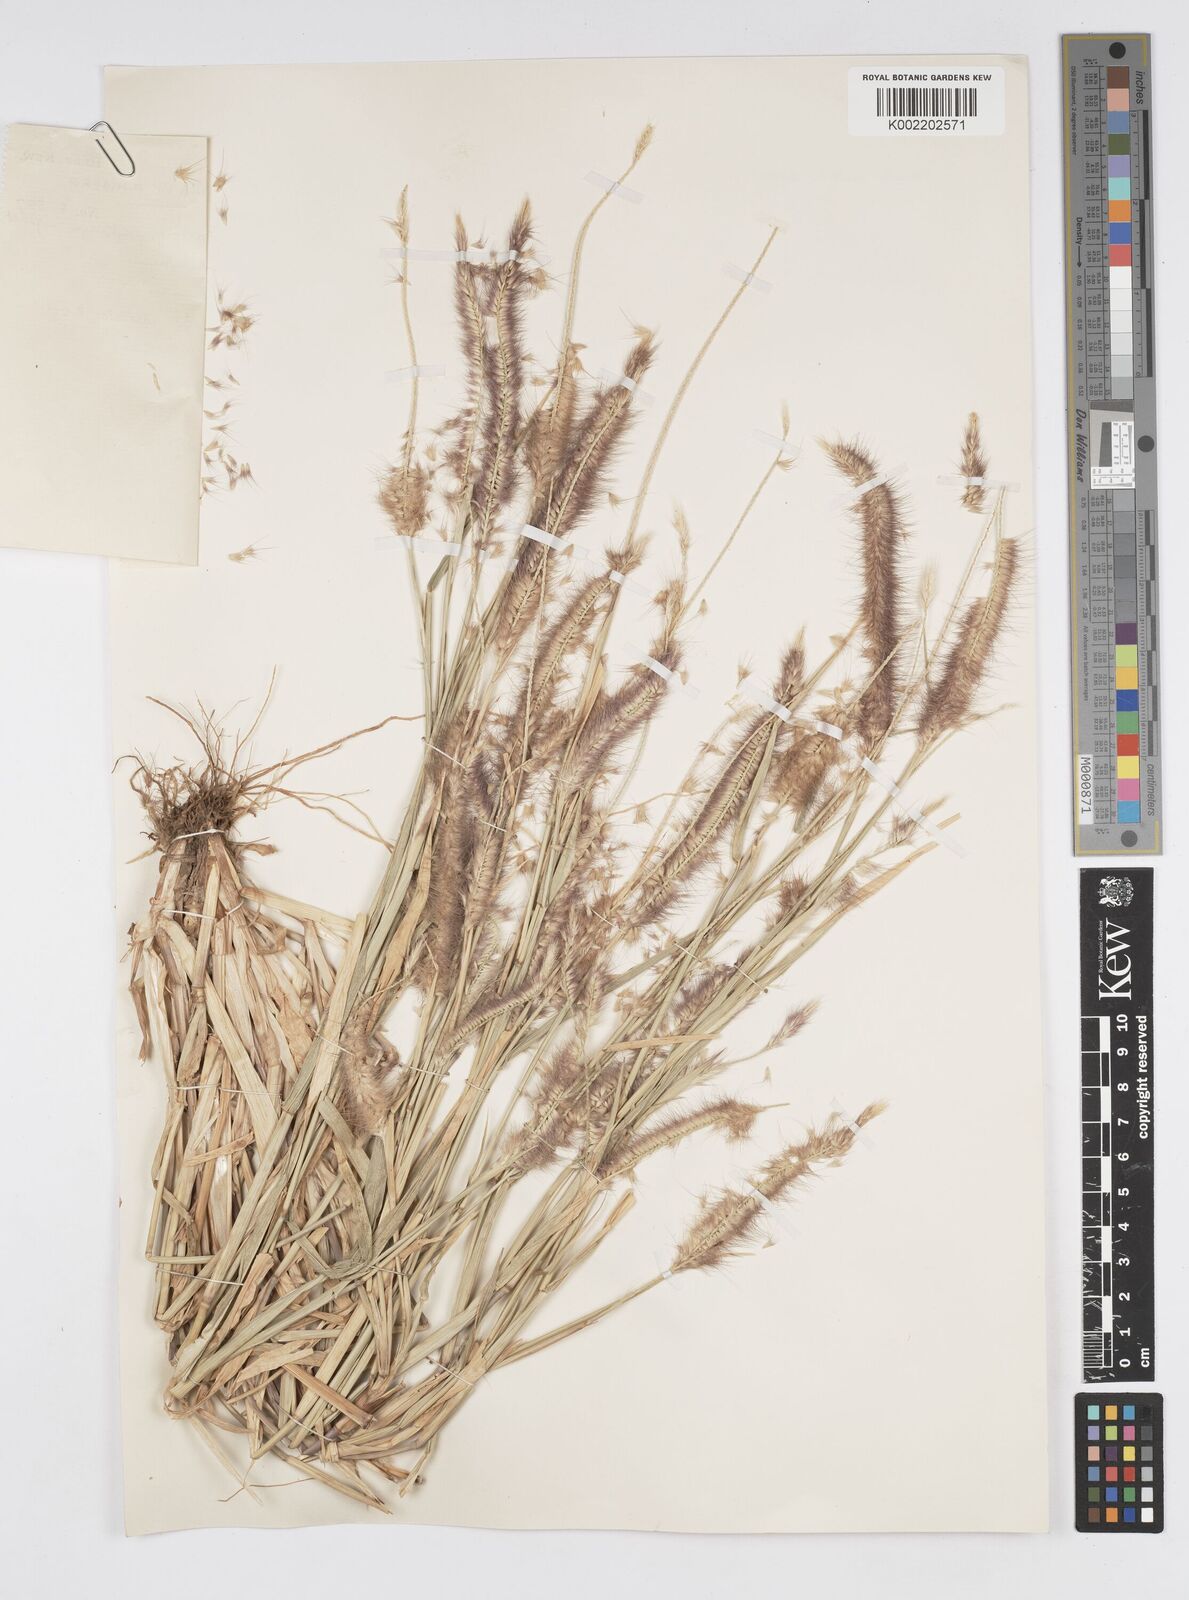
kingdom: Plantae
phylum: Tracheophyta
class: Liliopsida
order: Poales
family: Poaceae
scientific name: Poaceae
